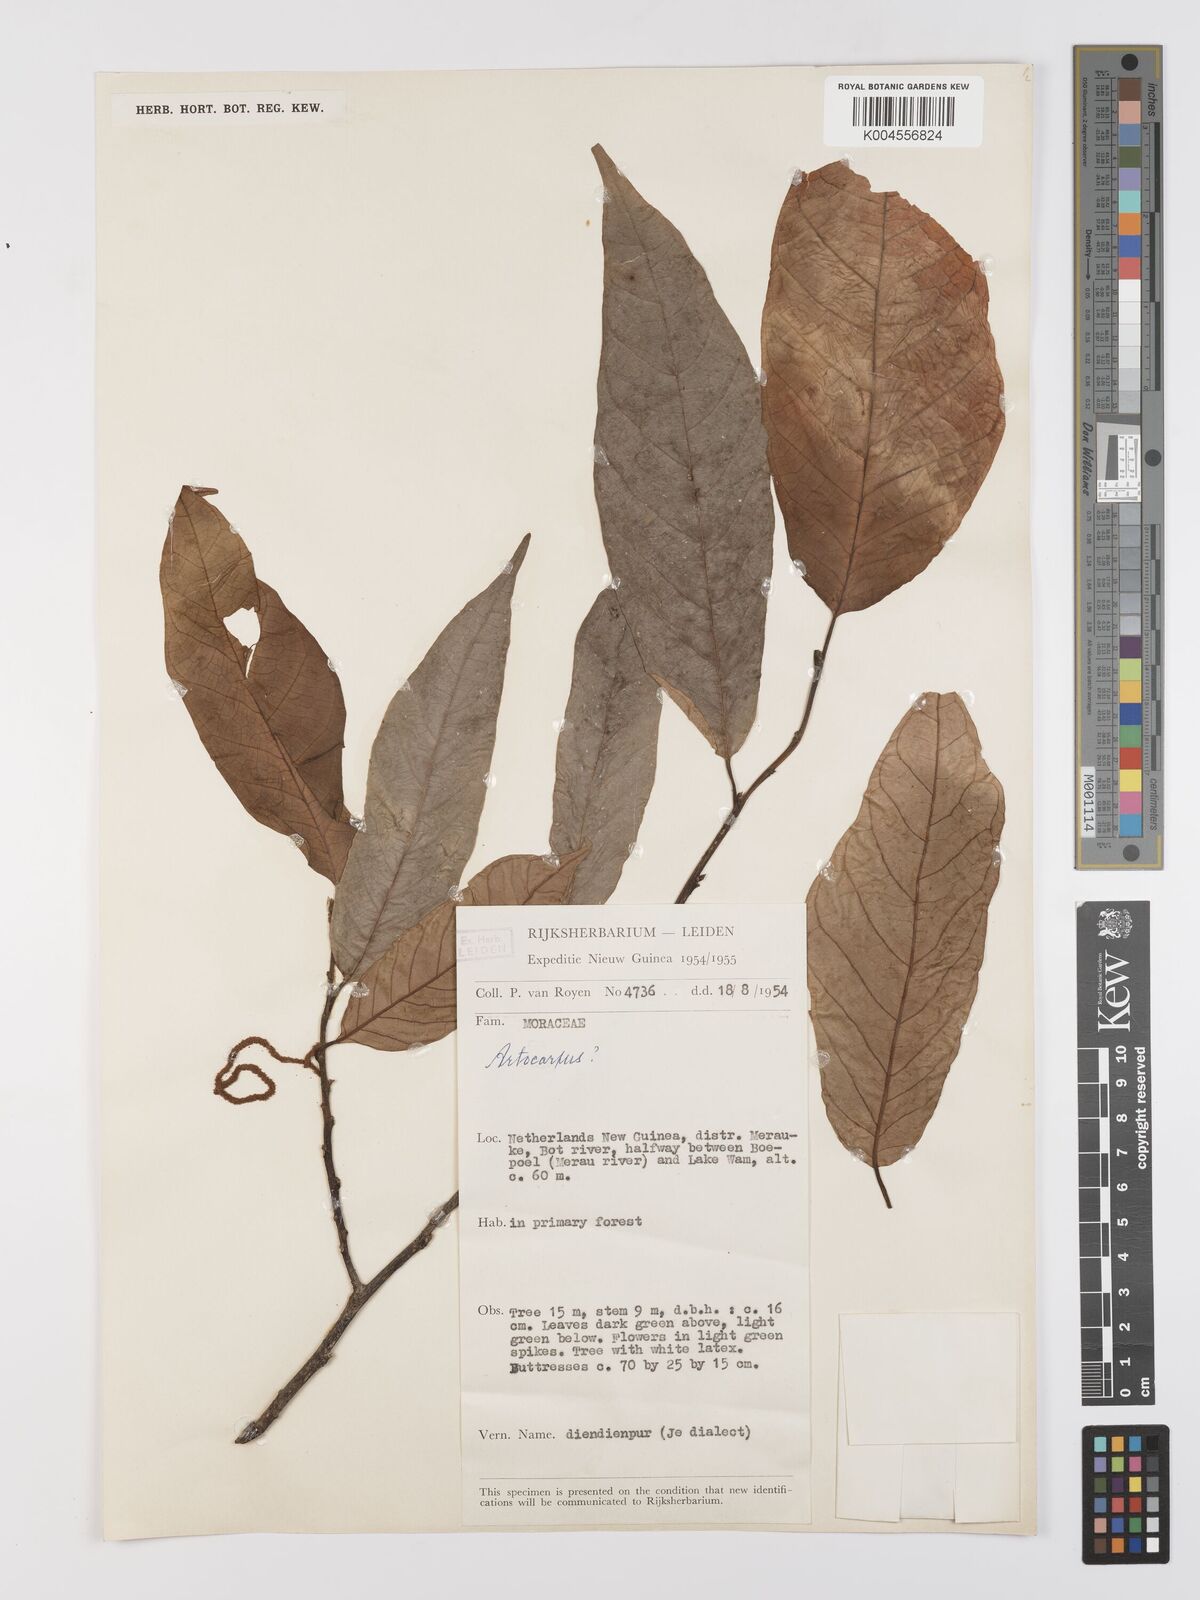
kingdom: Plantae
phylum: Tracheophyta
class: Magnoliopsida
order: Rosales
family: Moraceae
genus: Artocarpus
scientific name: Artocarpus
